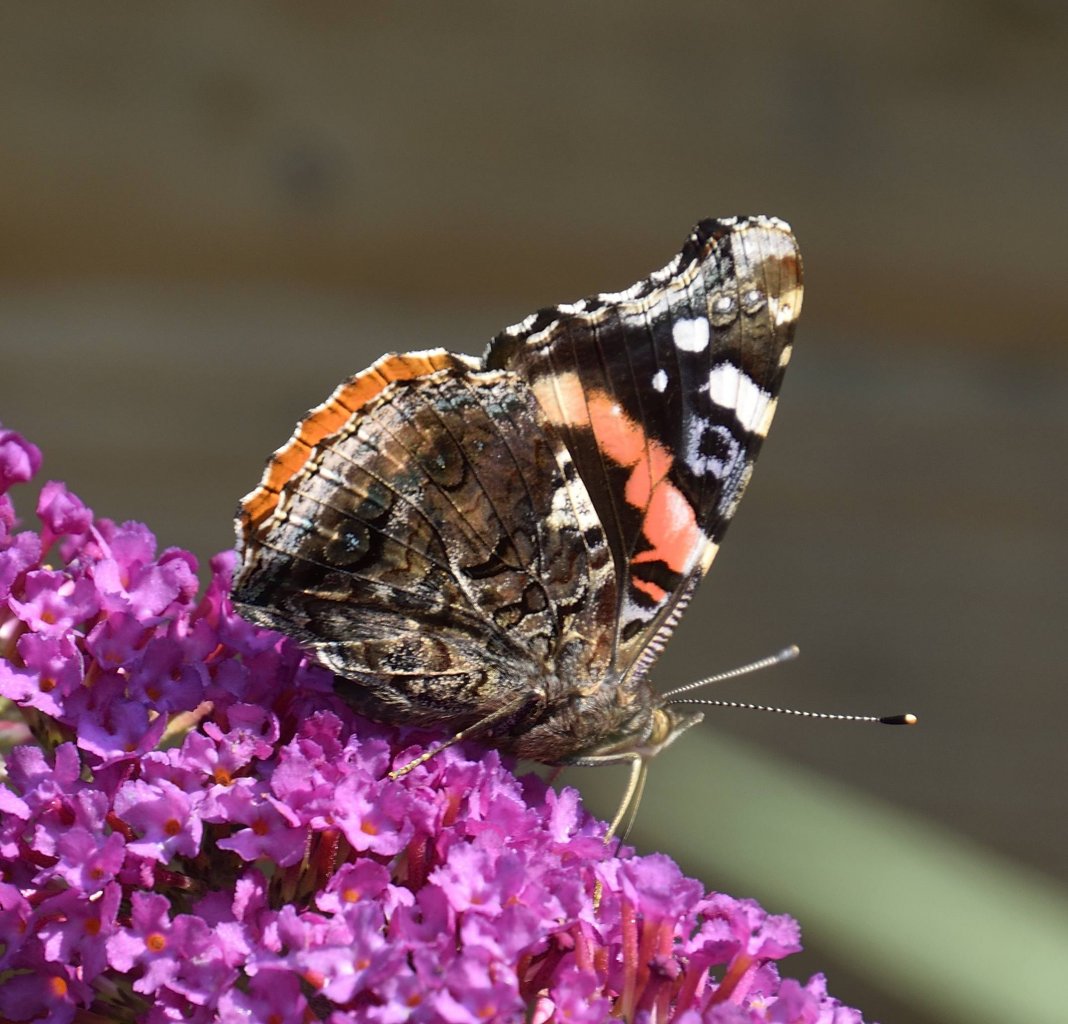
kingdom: Animalia
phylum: Arthropoda
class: Insecta
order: Lepidoptera
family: Nymphalidae
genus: Vanessa
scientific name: Vanessa atalanta
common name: Red Admiral
